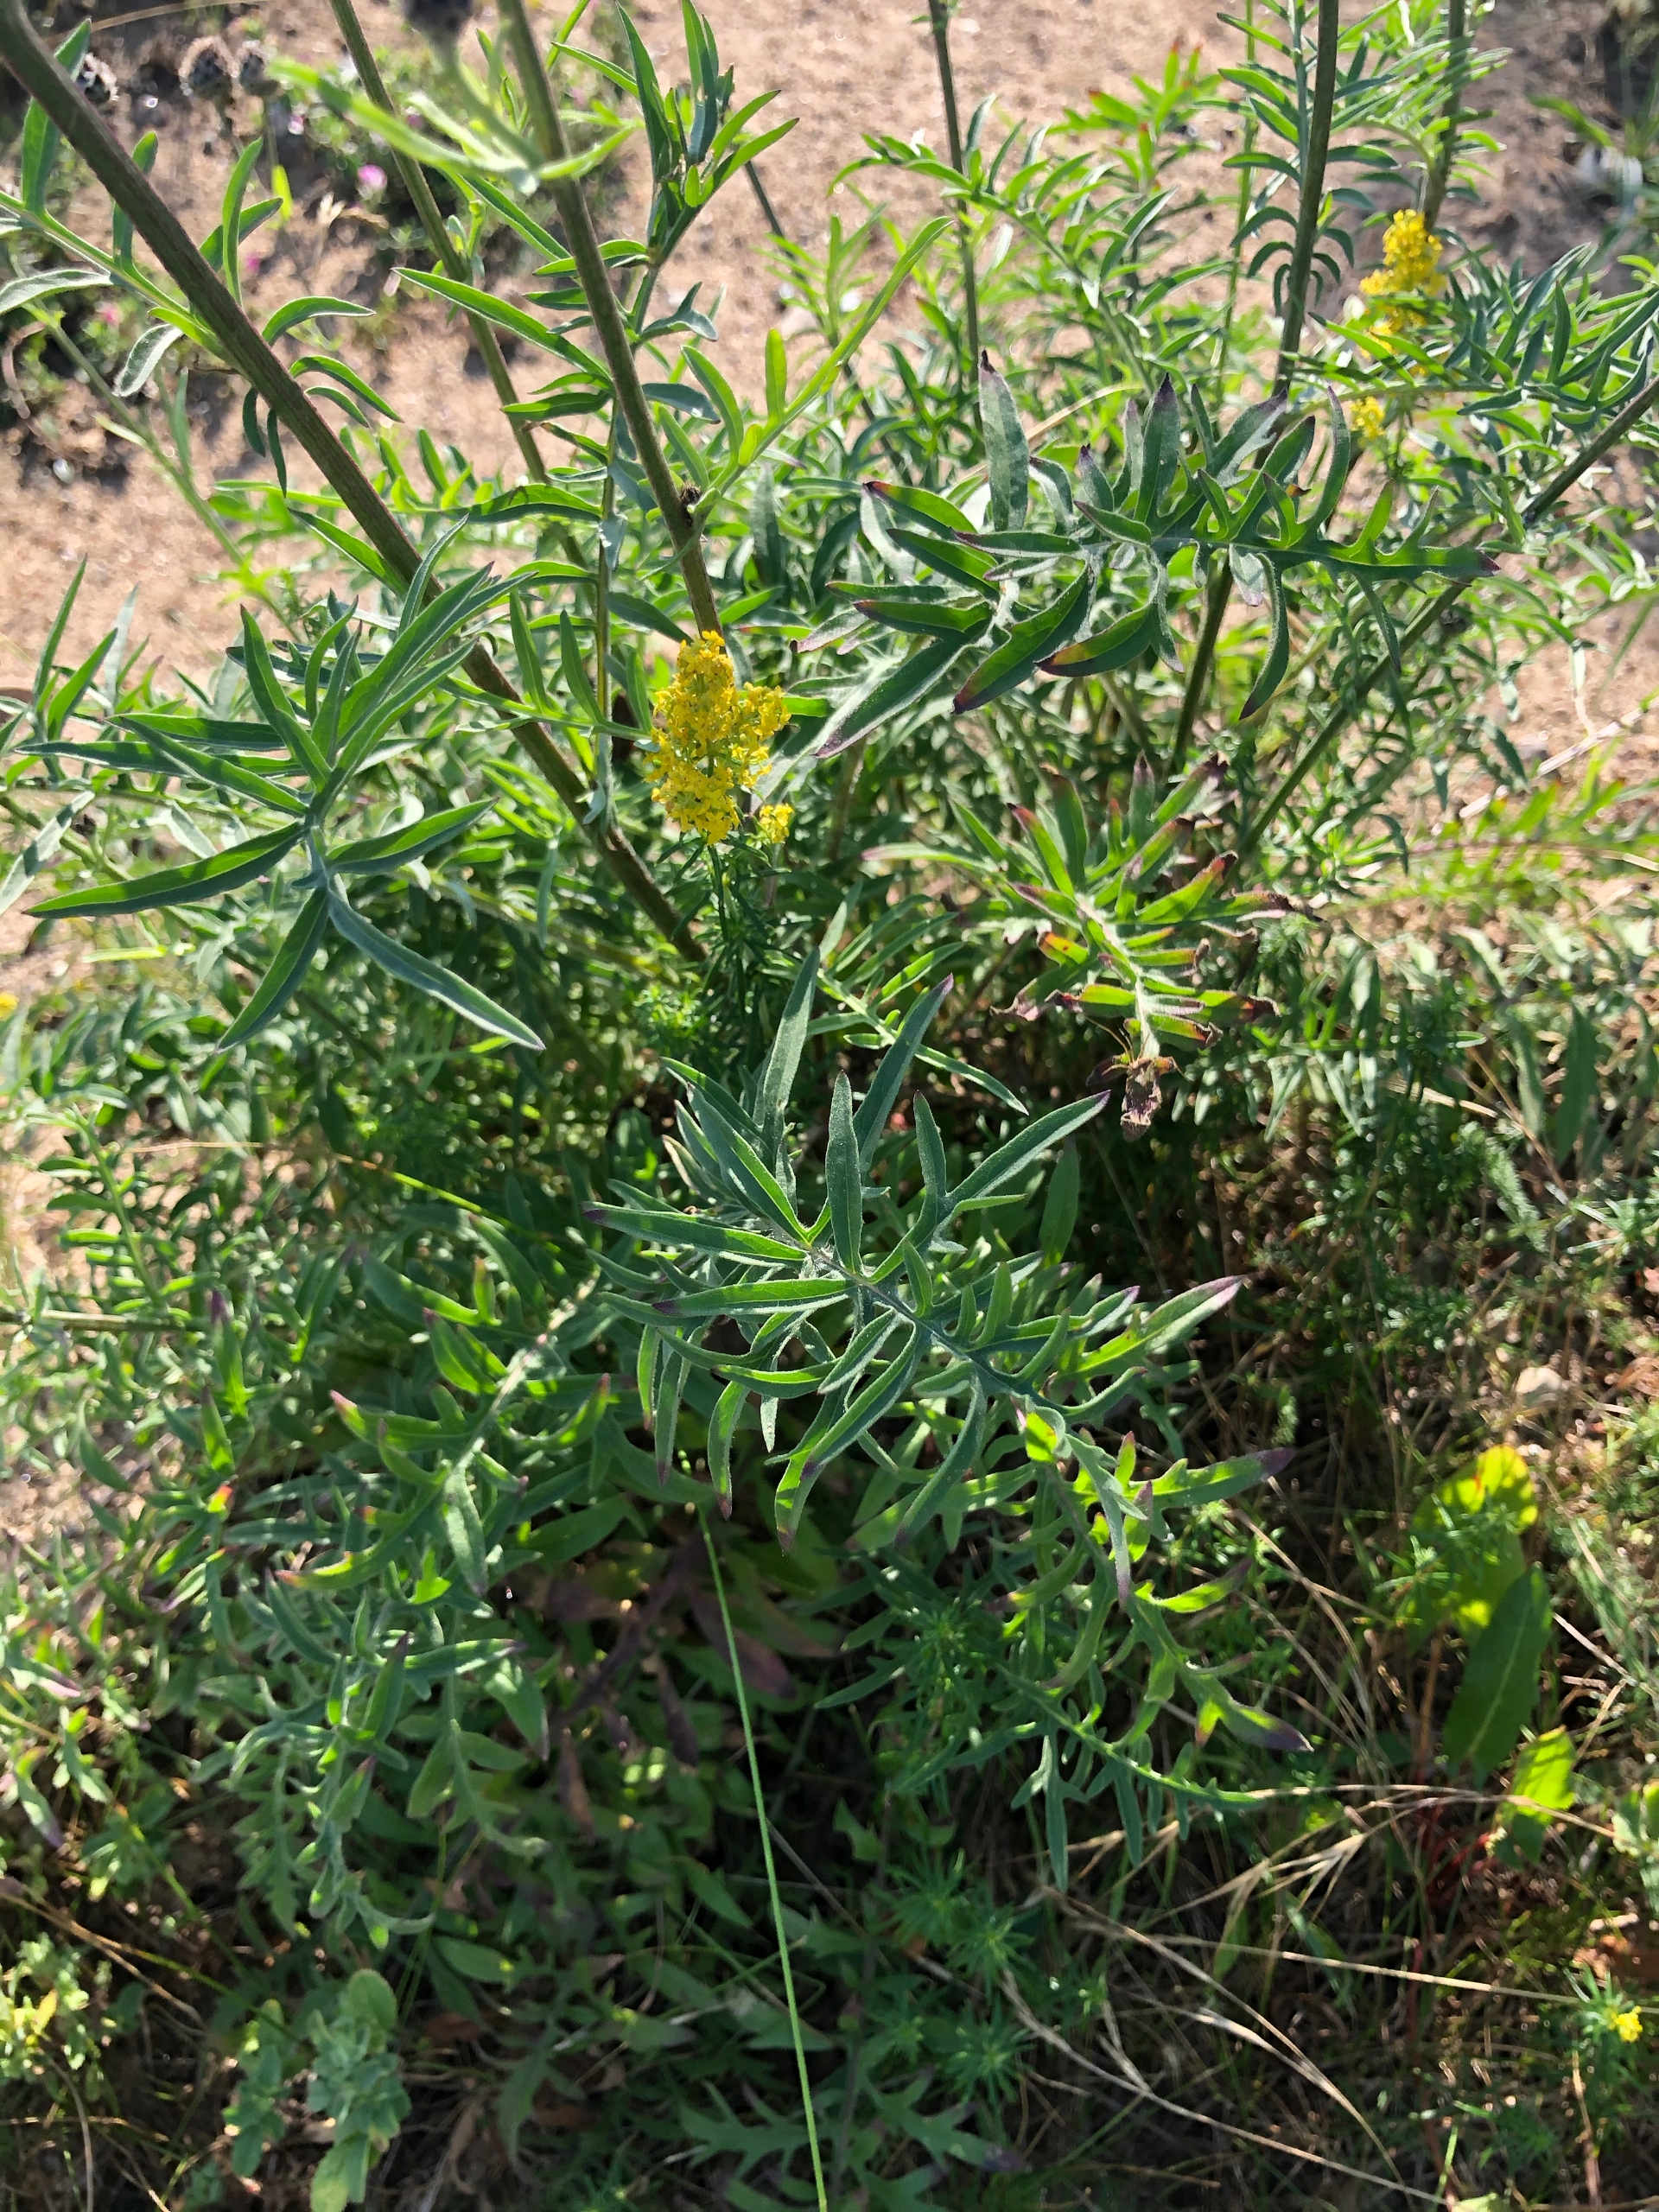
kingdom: Plantae
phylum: Tracheophyta
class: Magnoliopsida
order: Asterales
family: Asteraceae
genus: Centaurea
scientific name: Centaurea scabiosa
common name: Stor knopurt
